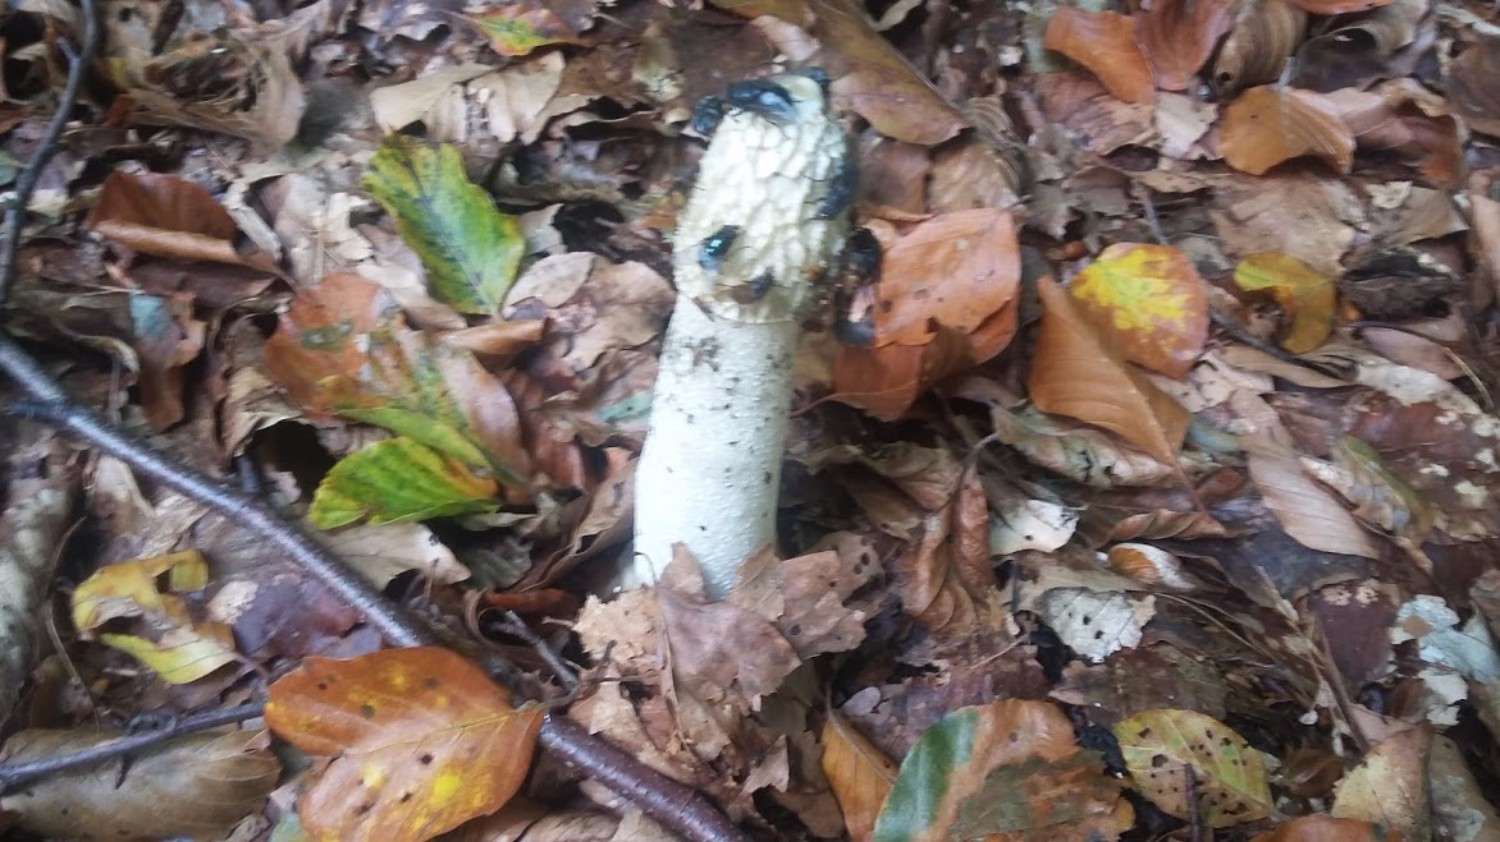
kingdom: Fungi
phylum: Basidiomycota
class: Agaricomycetes
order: Phallales
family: Phallaceae
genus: Phallus
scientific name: Phallus impudicus
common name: almindelig stinksvamp
